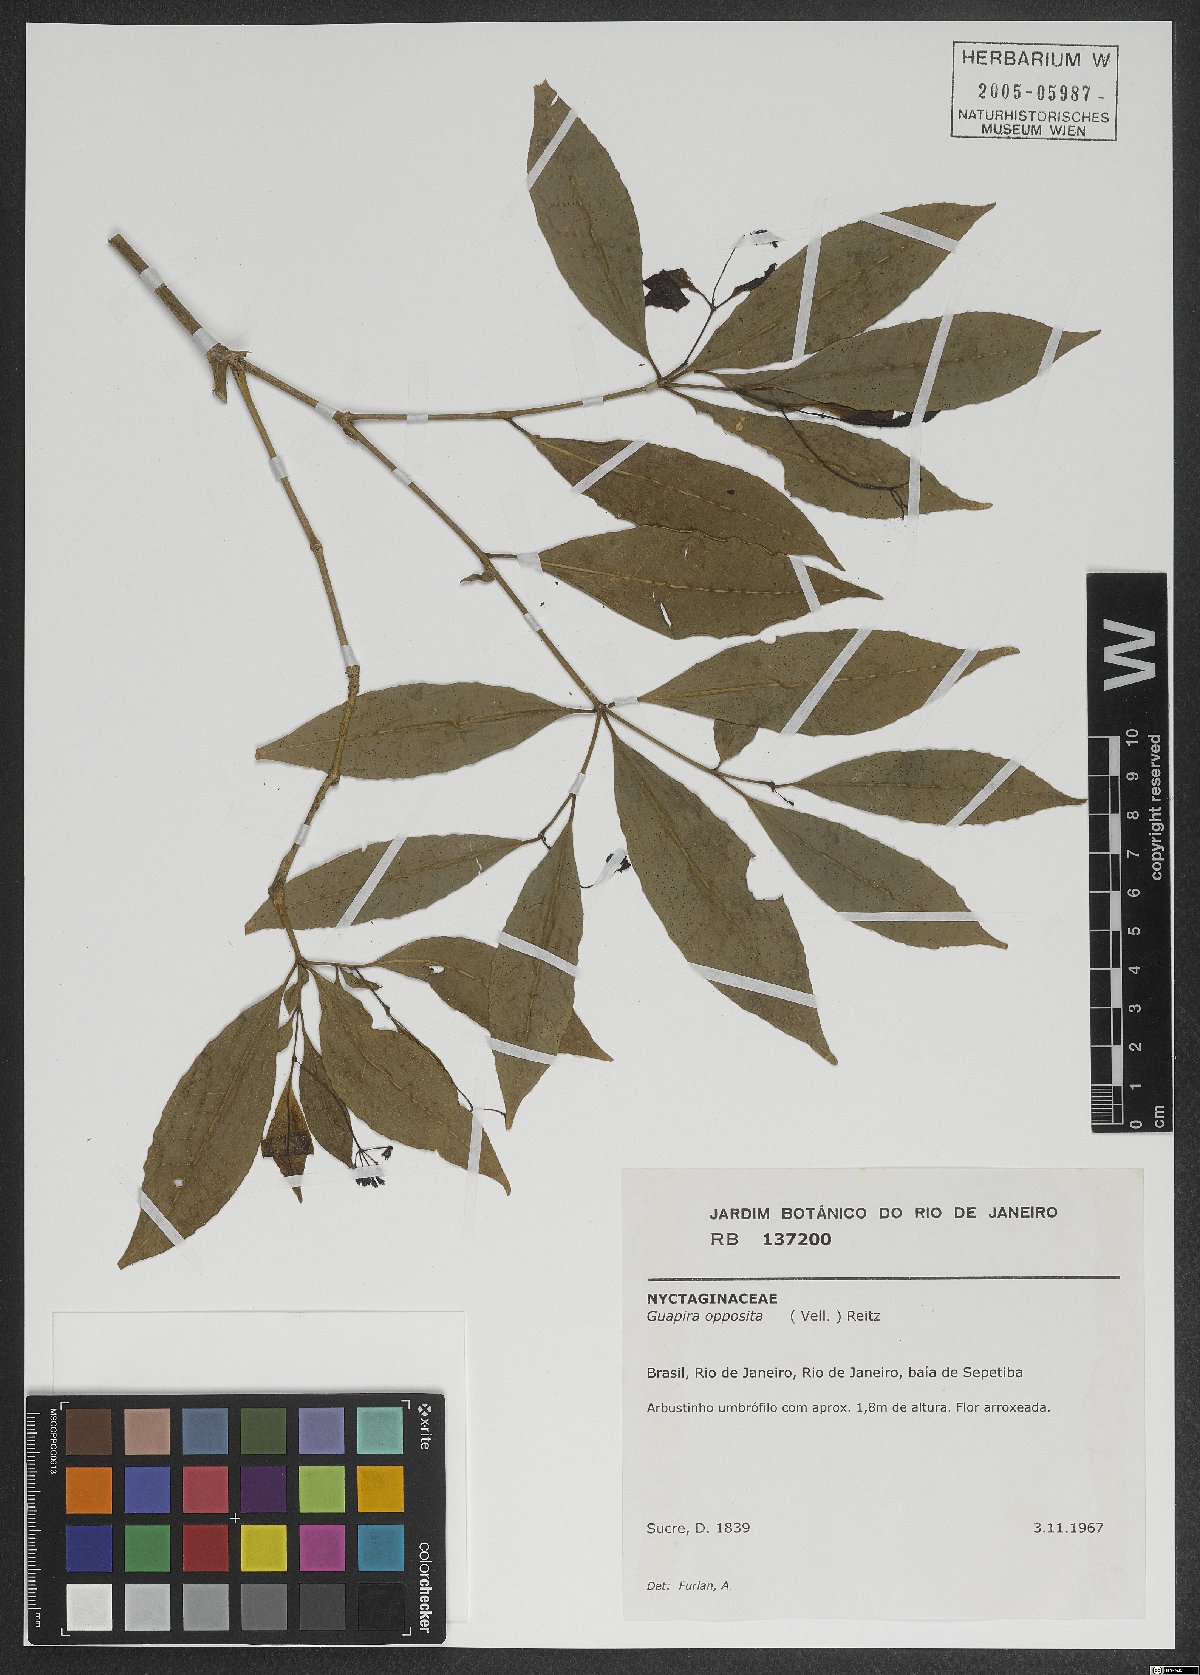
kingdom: Plantae
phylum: Tracheophyta
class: Magnoliopsida
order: Caryophyllales
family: Nyctaginaceae
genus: Guapira
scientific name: Guapira opposita
